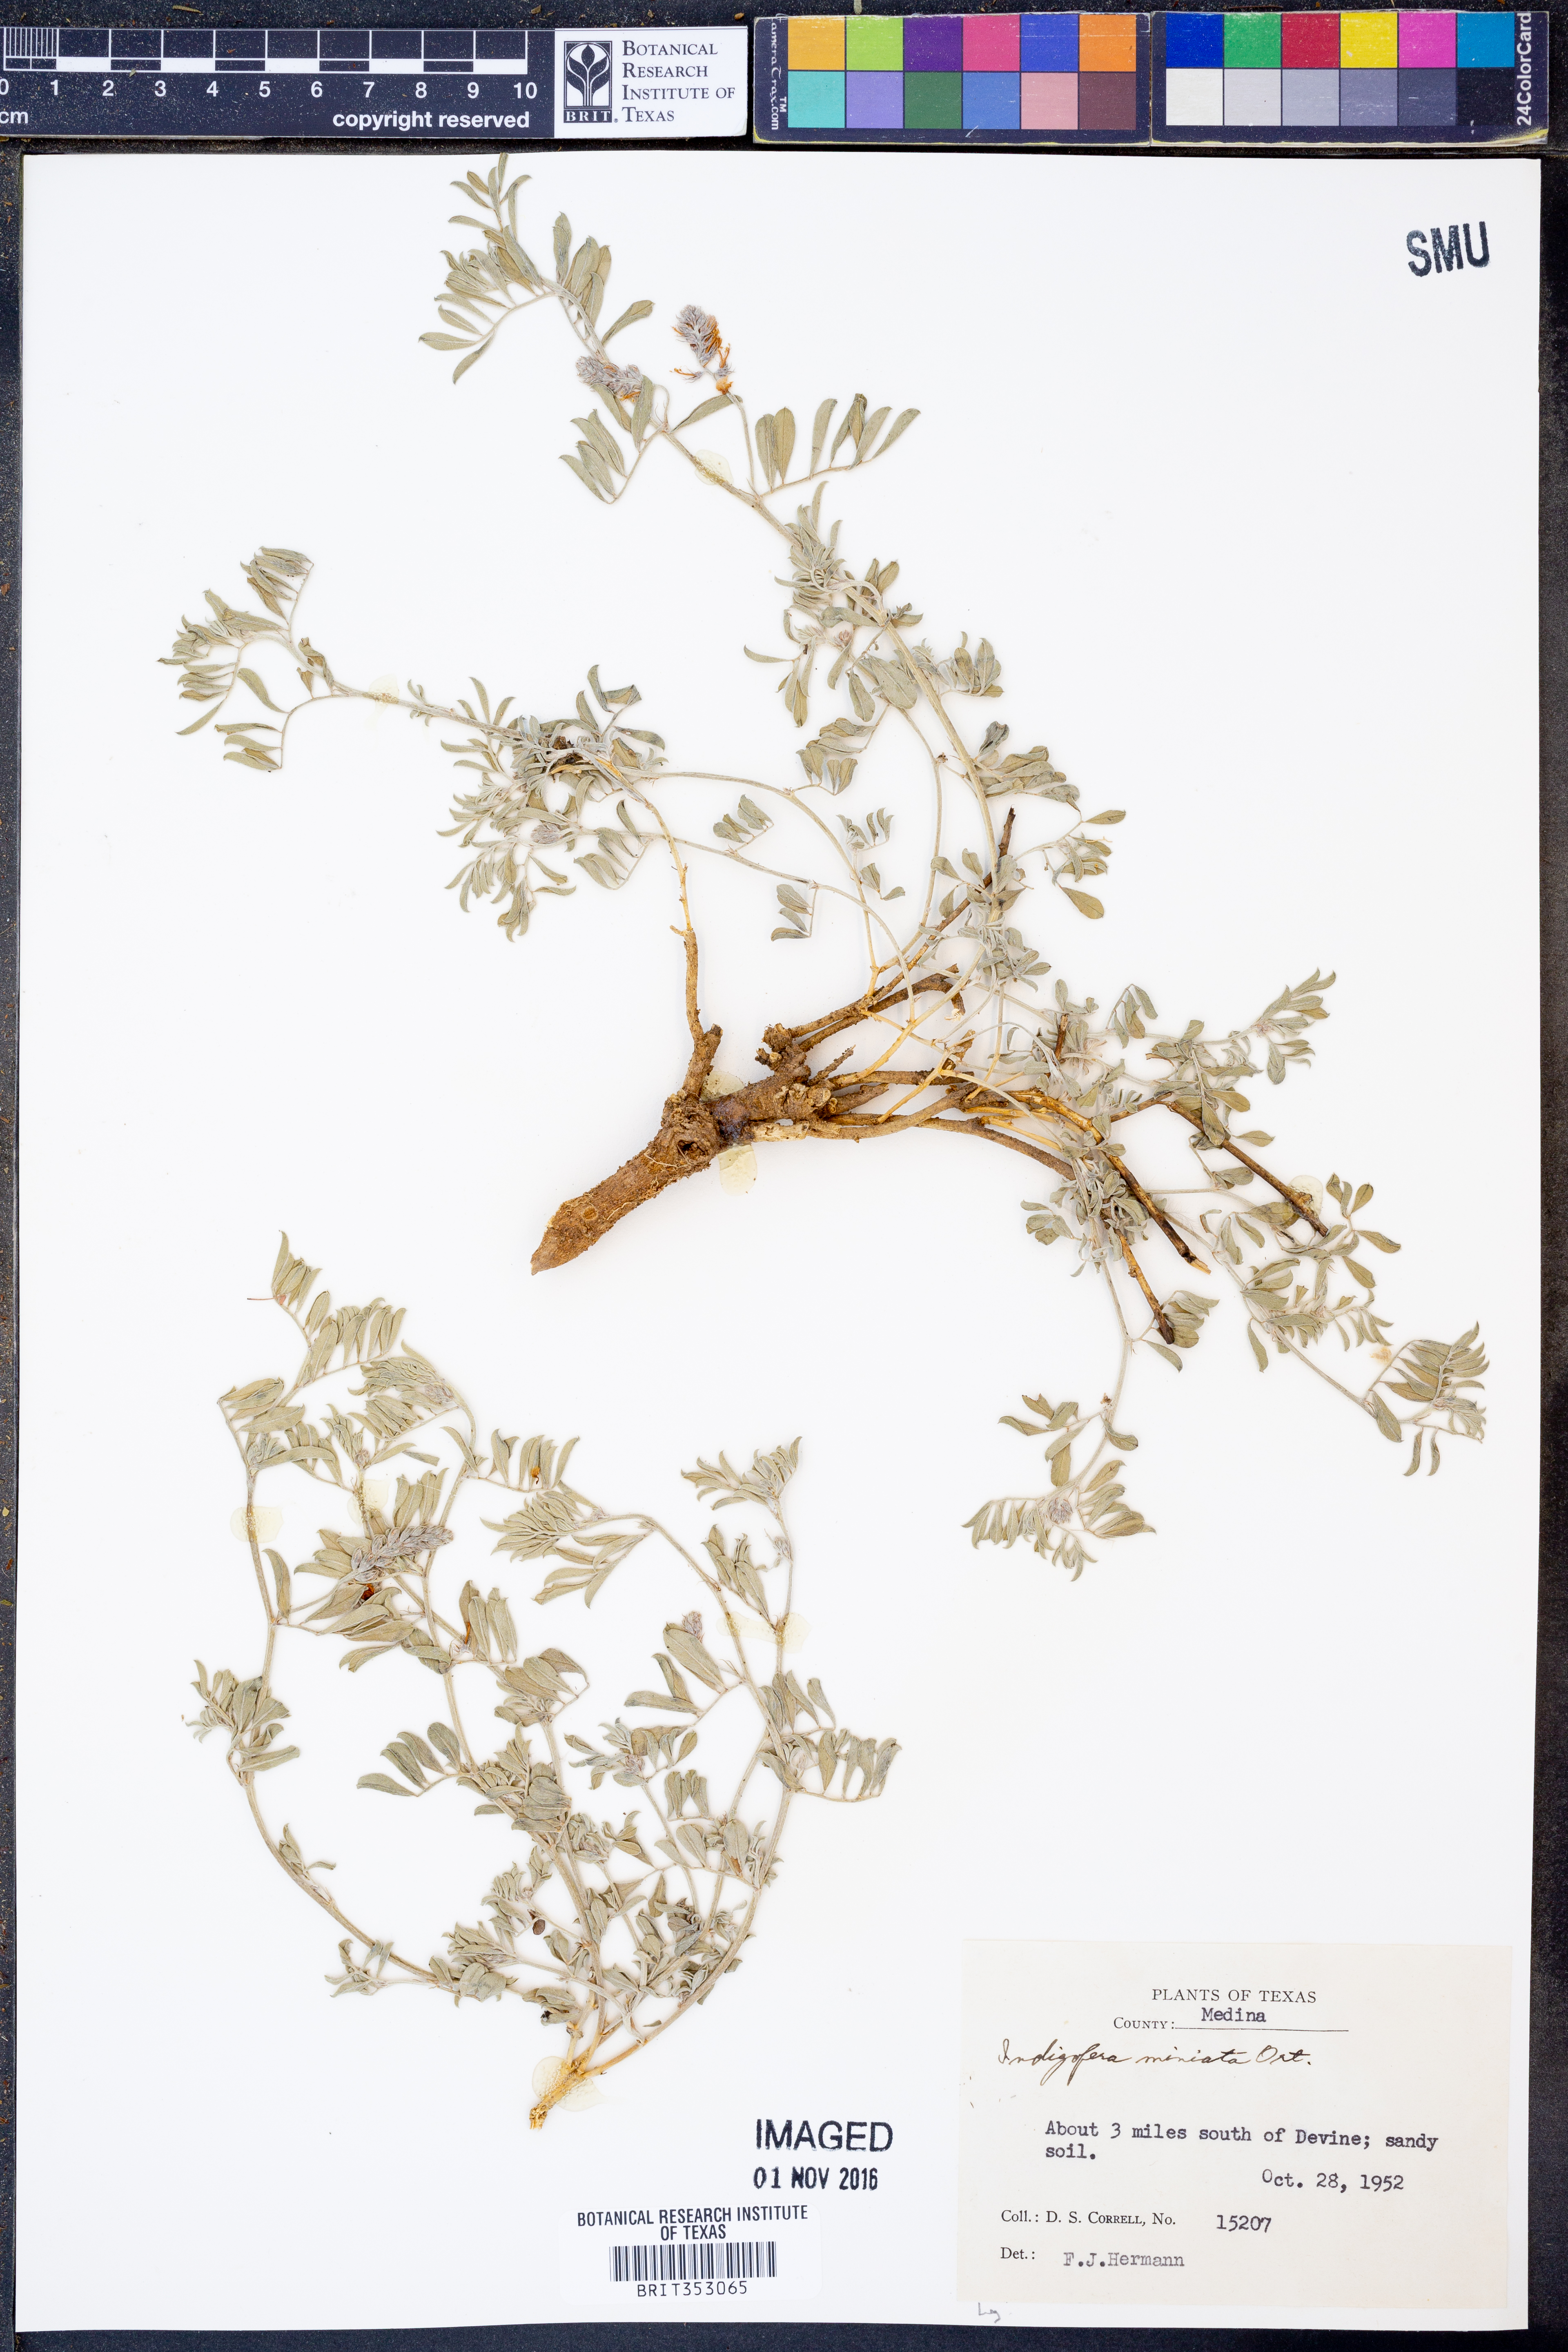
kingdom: Plantae
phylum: Tracheophyta
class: Magnoliopsida
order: Fabales
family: Fabaceae
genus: Indigofera
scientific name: Indigofera miniata
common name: Coast indigo
